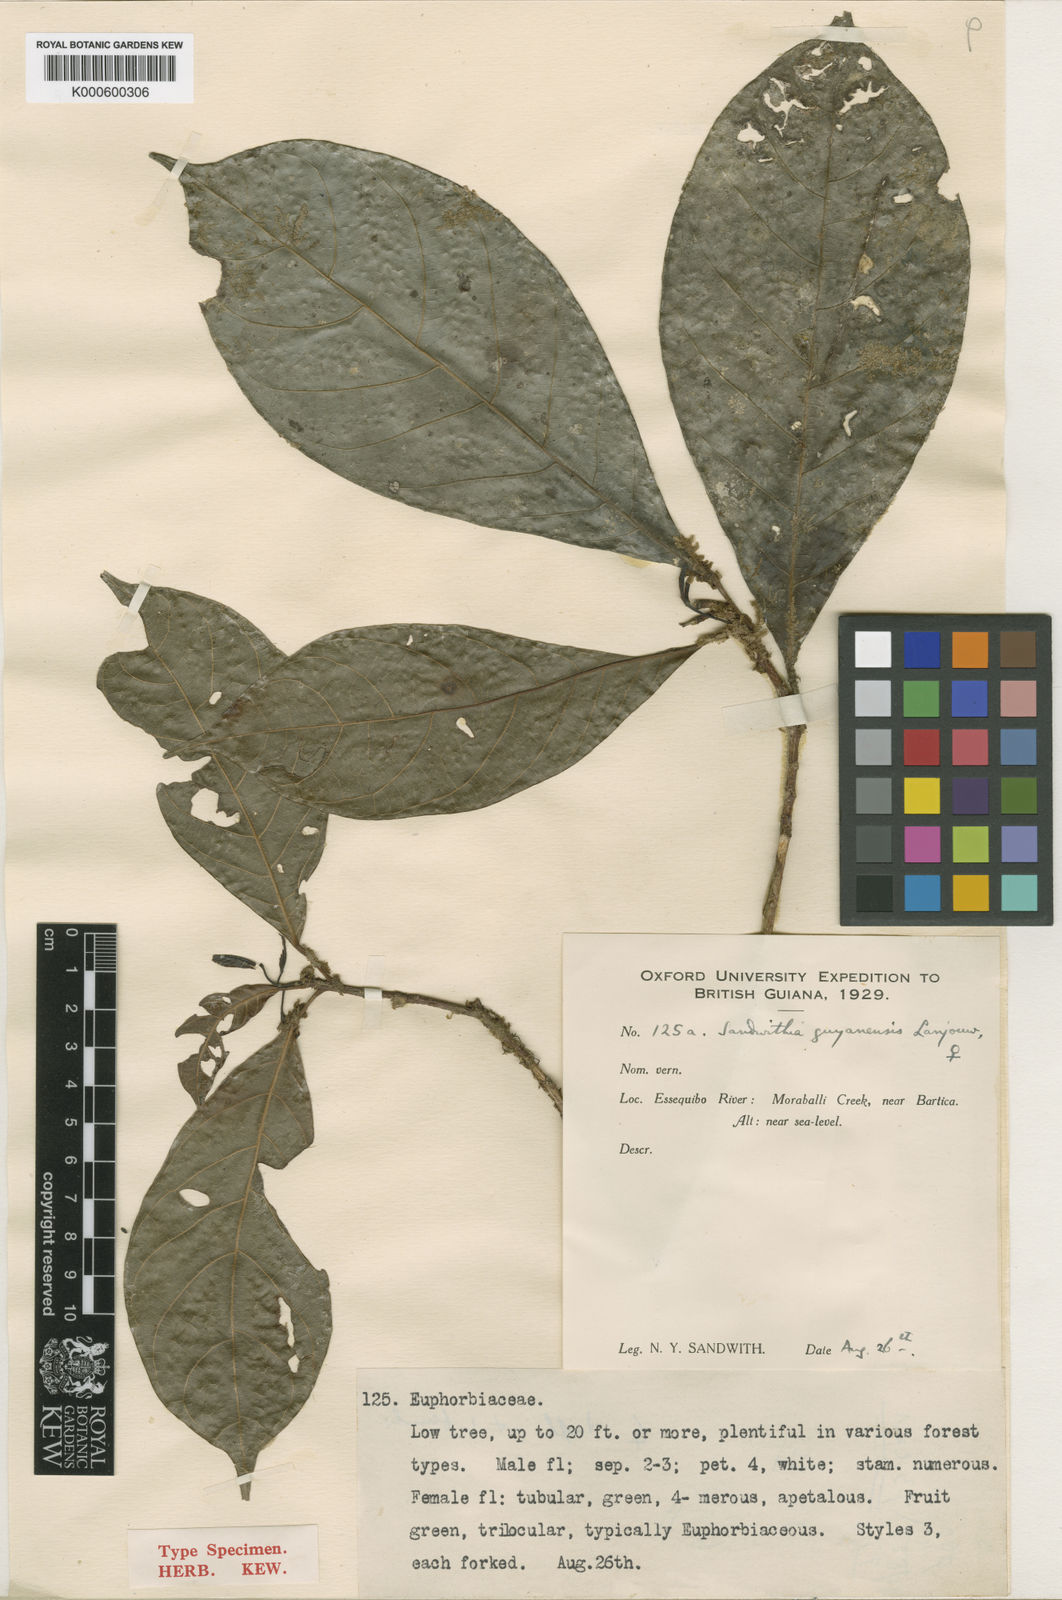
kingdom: Plantae
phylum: Tracheophyta
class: Magnoliopsida
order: Malpighiales
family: Euphorbiaceae
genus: Sandwithia
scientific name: Sandwithia guyanensis
